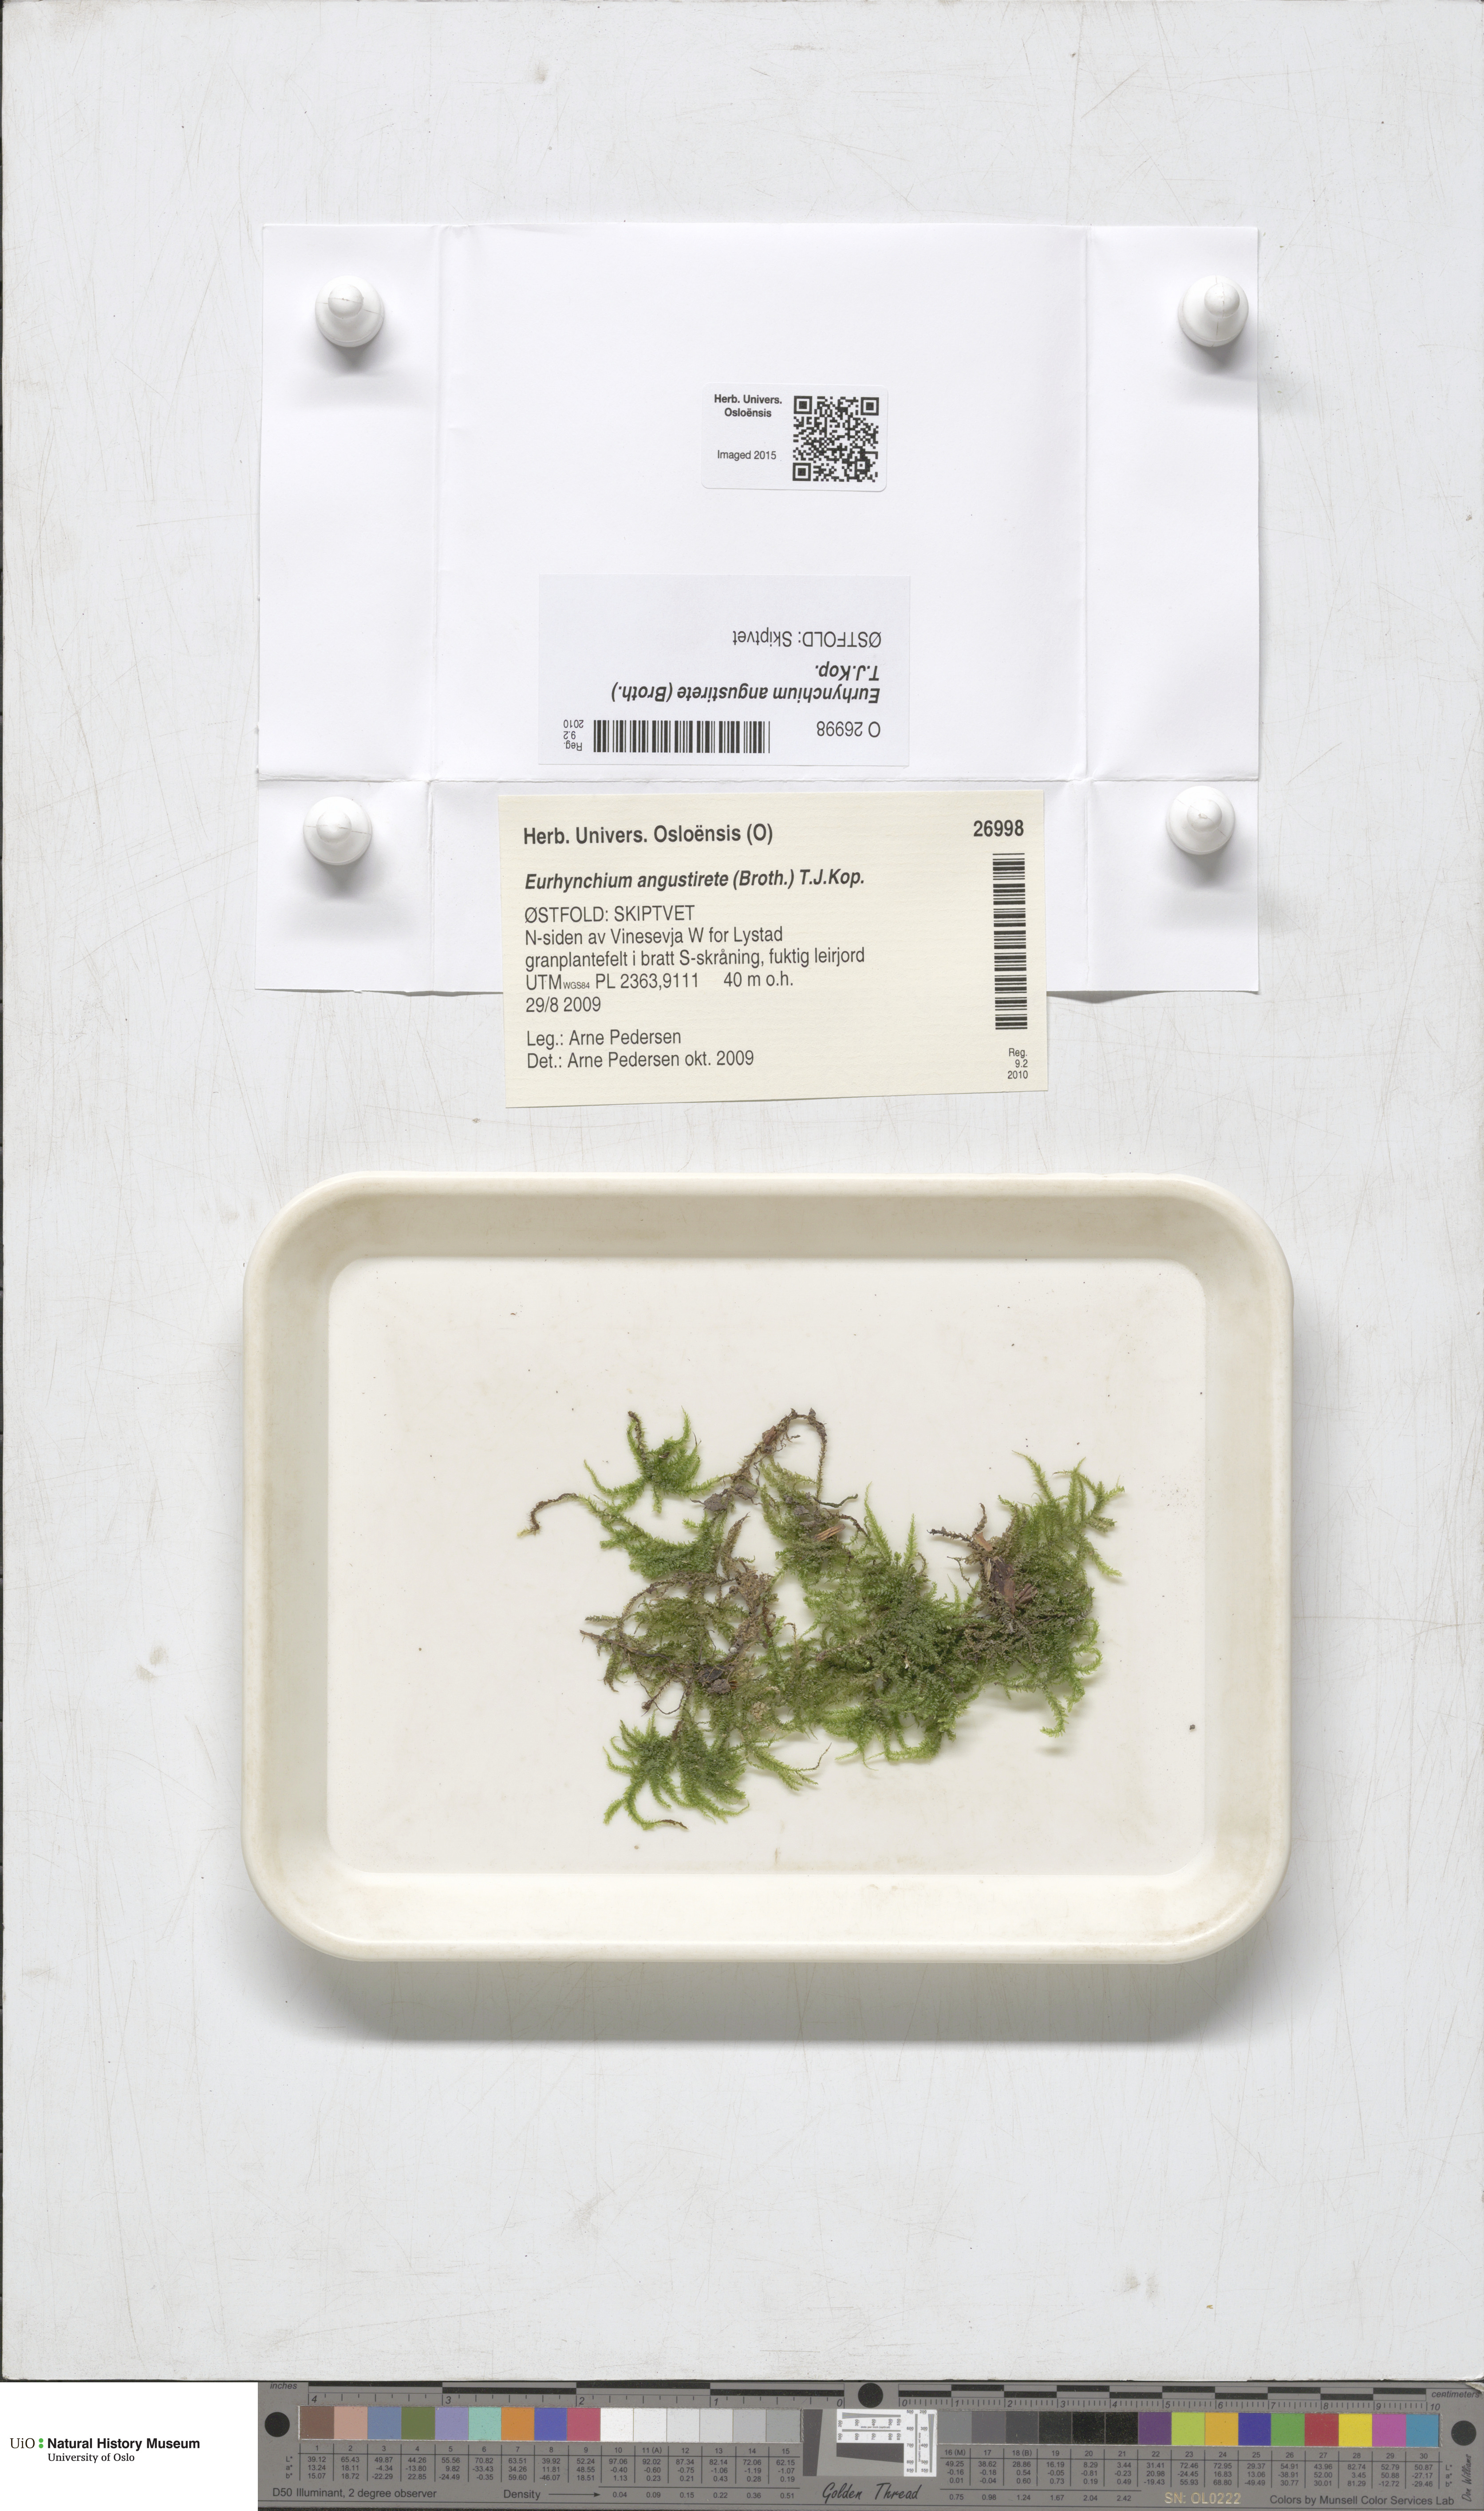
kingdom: Plantae
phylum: Bryophyta
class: Bryopsida
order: Hypnales
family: Brachytheciaceae
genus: Eurhynchium
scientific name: Eurhynchium angustirete
